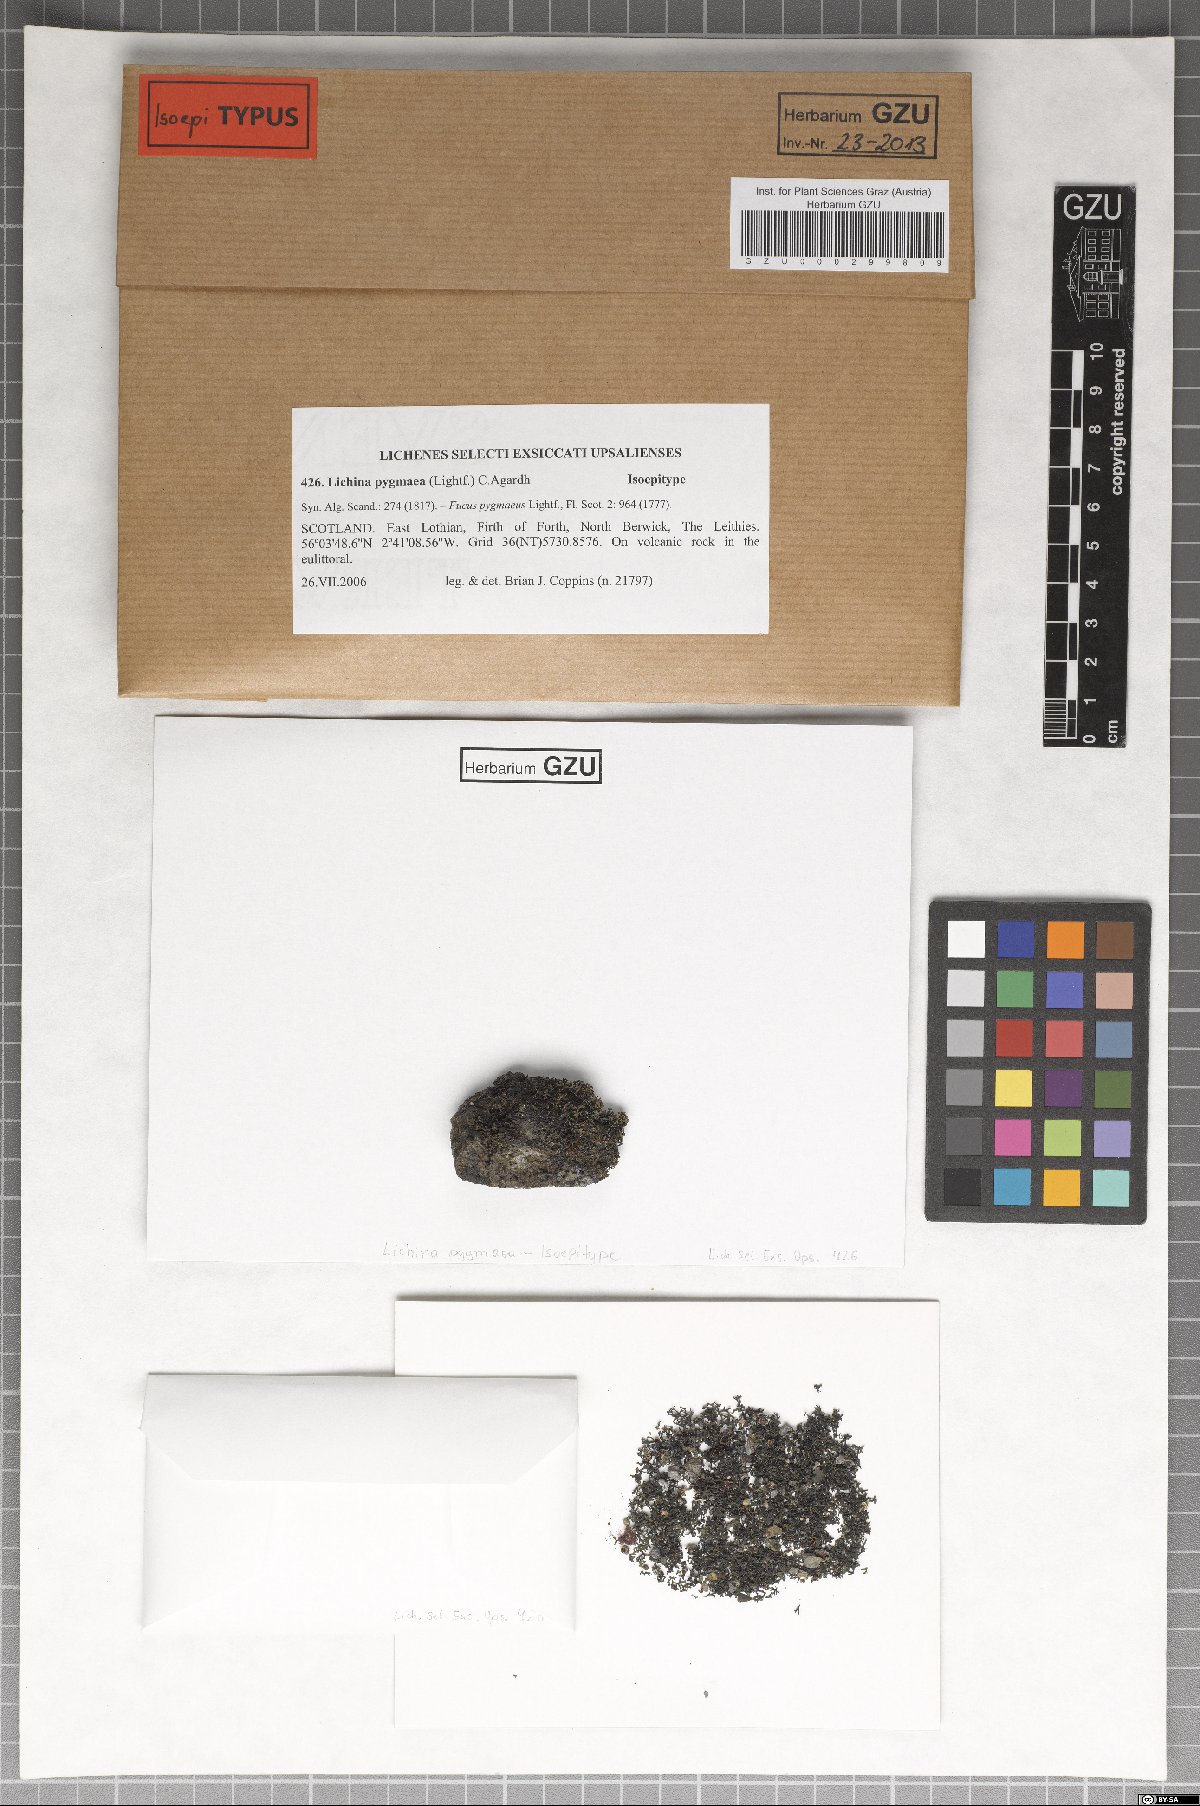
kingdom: Fungi
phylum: Ascomycota
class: Lichinomycetes
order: Lichinales
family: Lichinaceae
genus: Lichina
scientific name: Lichina pygmaea
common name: Black lichen
